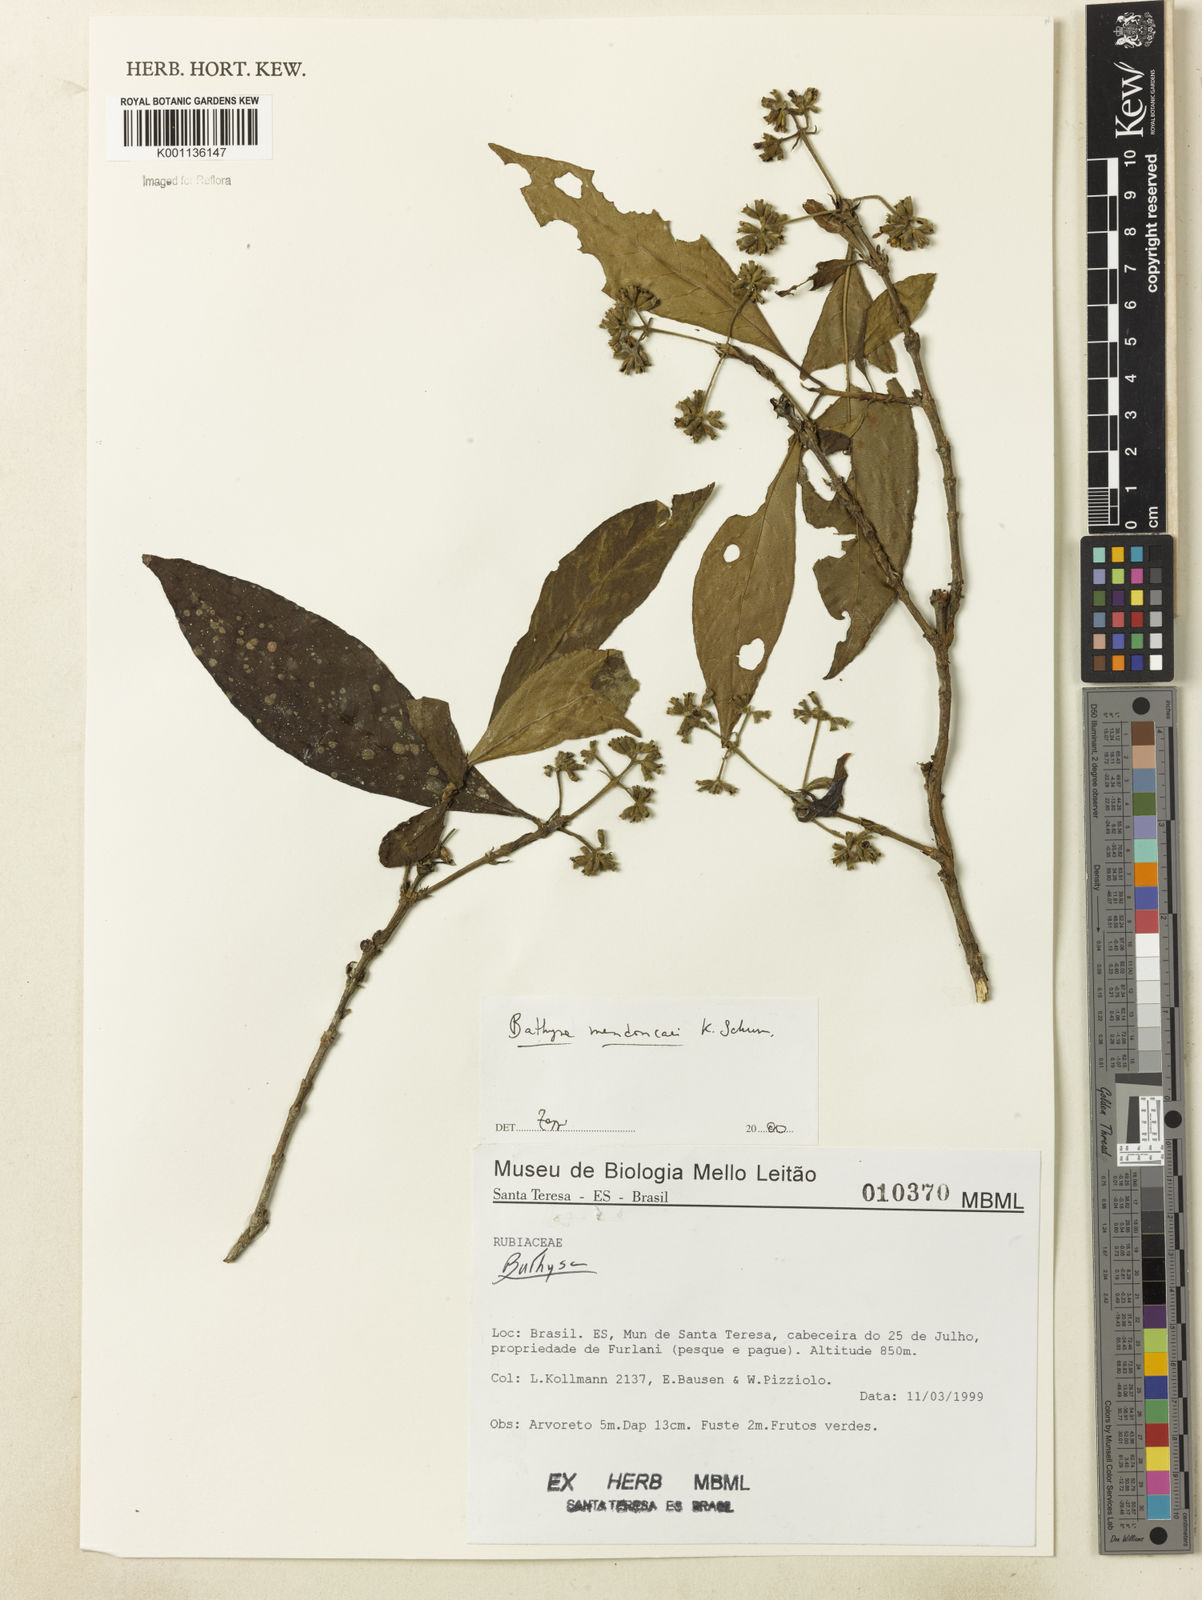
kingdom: Plantae
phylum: Tracheophyta
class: Magnoliopsida
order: Gentianales
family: Rubiaceae
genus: Bathysa
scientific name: Bathysa
